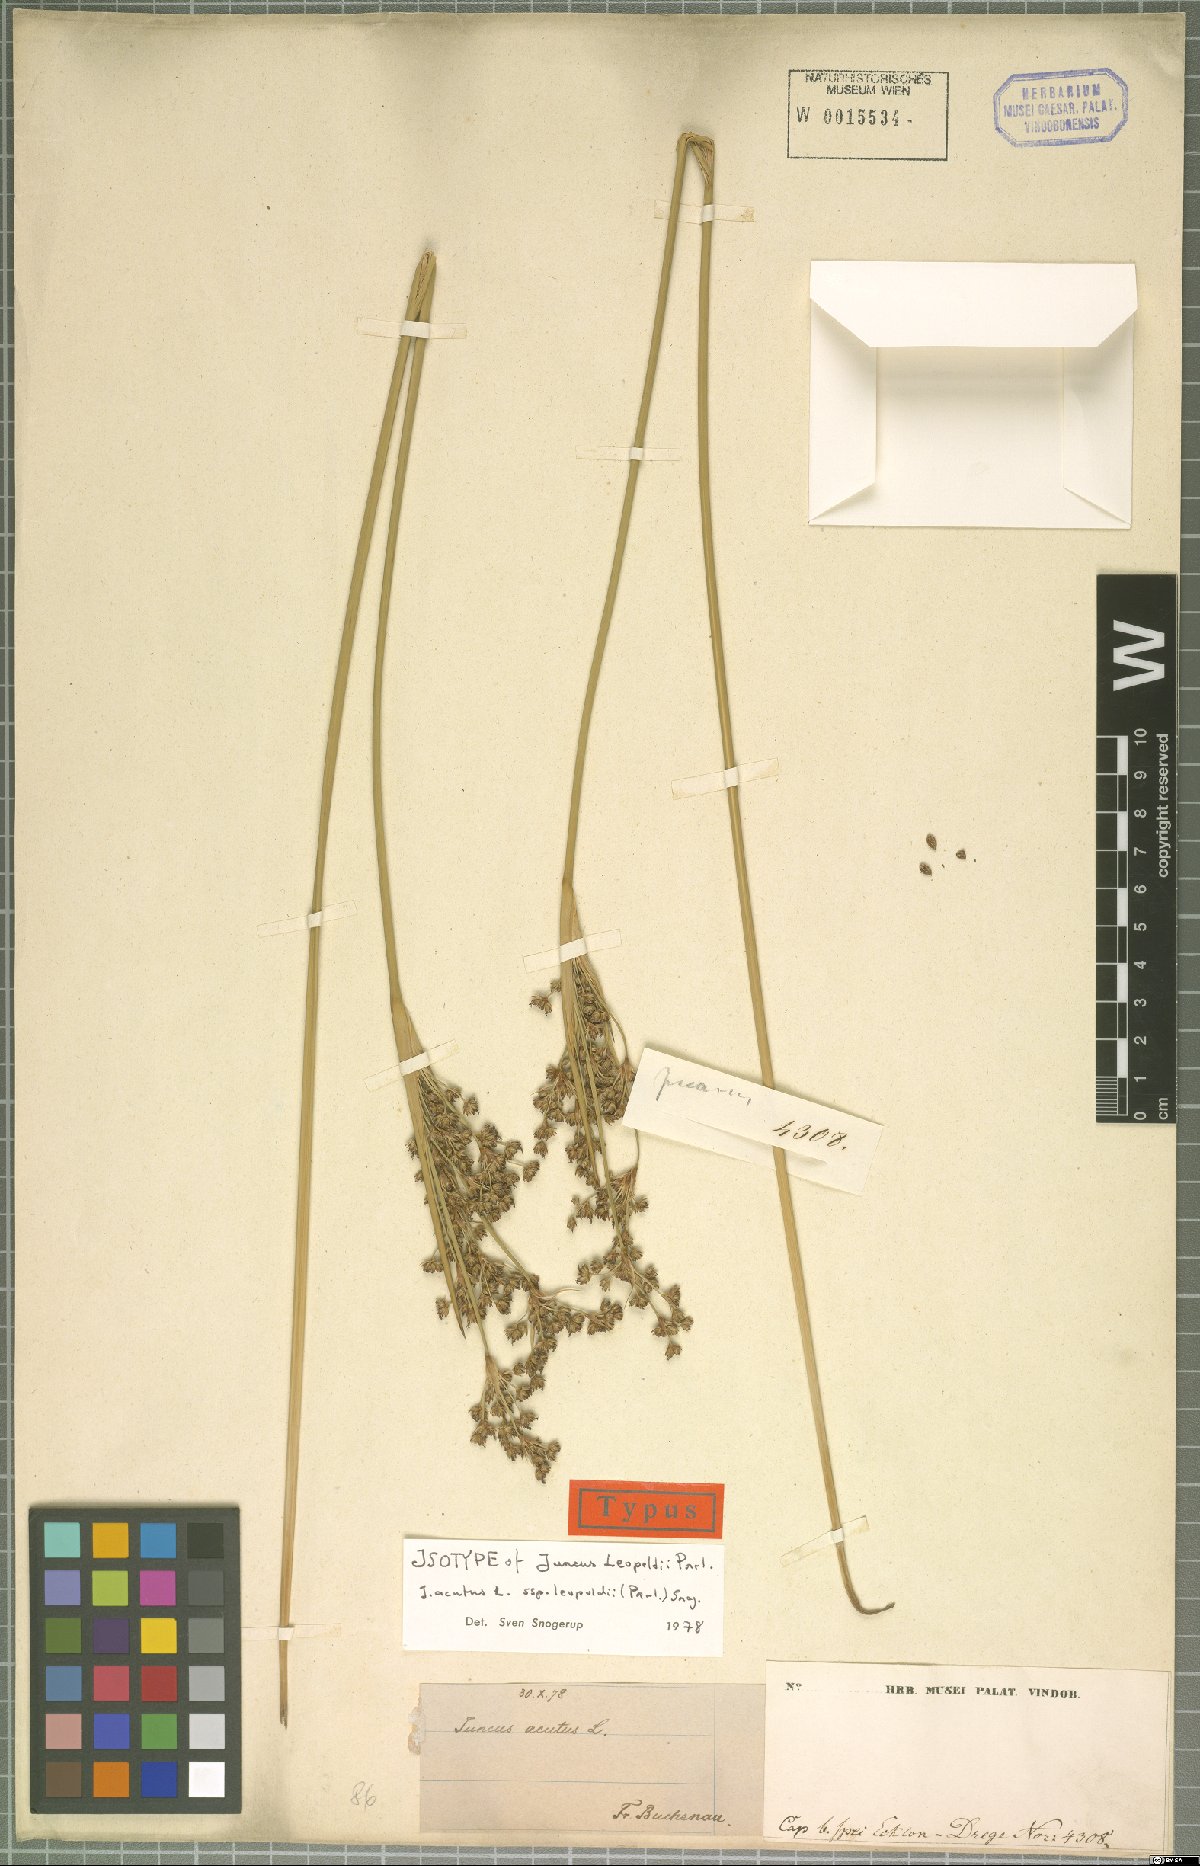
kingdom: Plantae
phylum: Tracheophyta
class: Liliopsida
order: Poales
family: Juncaceae
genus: Juncus
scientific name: Juncus acutus
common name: Sharp rush
